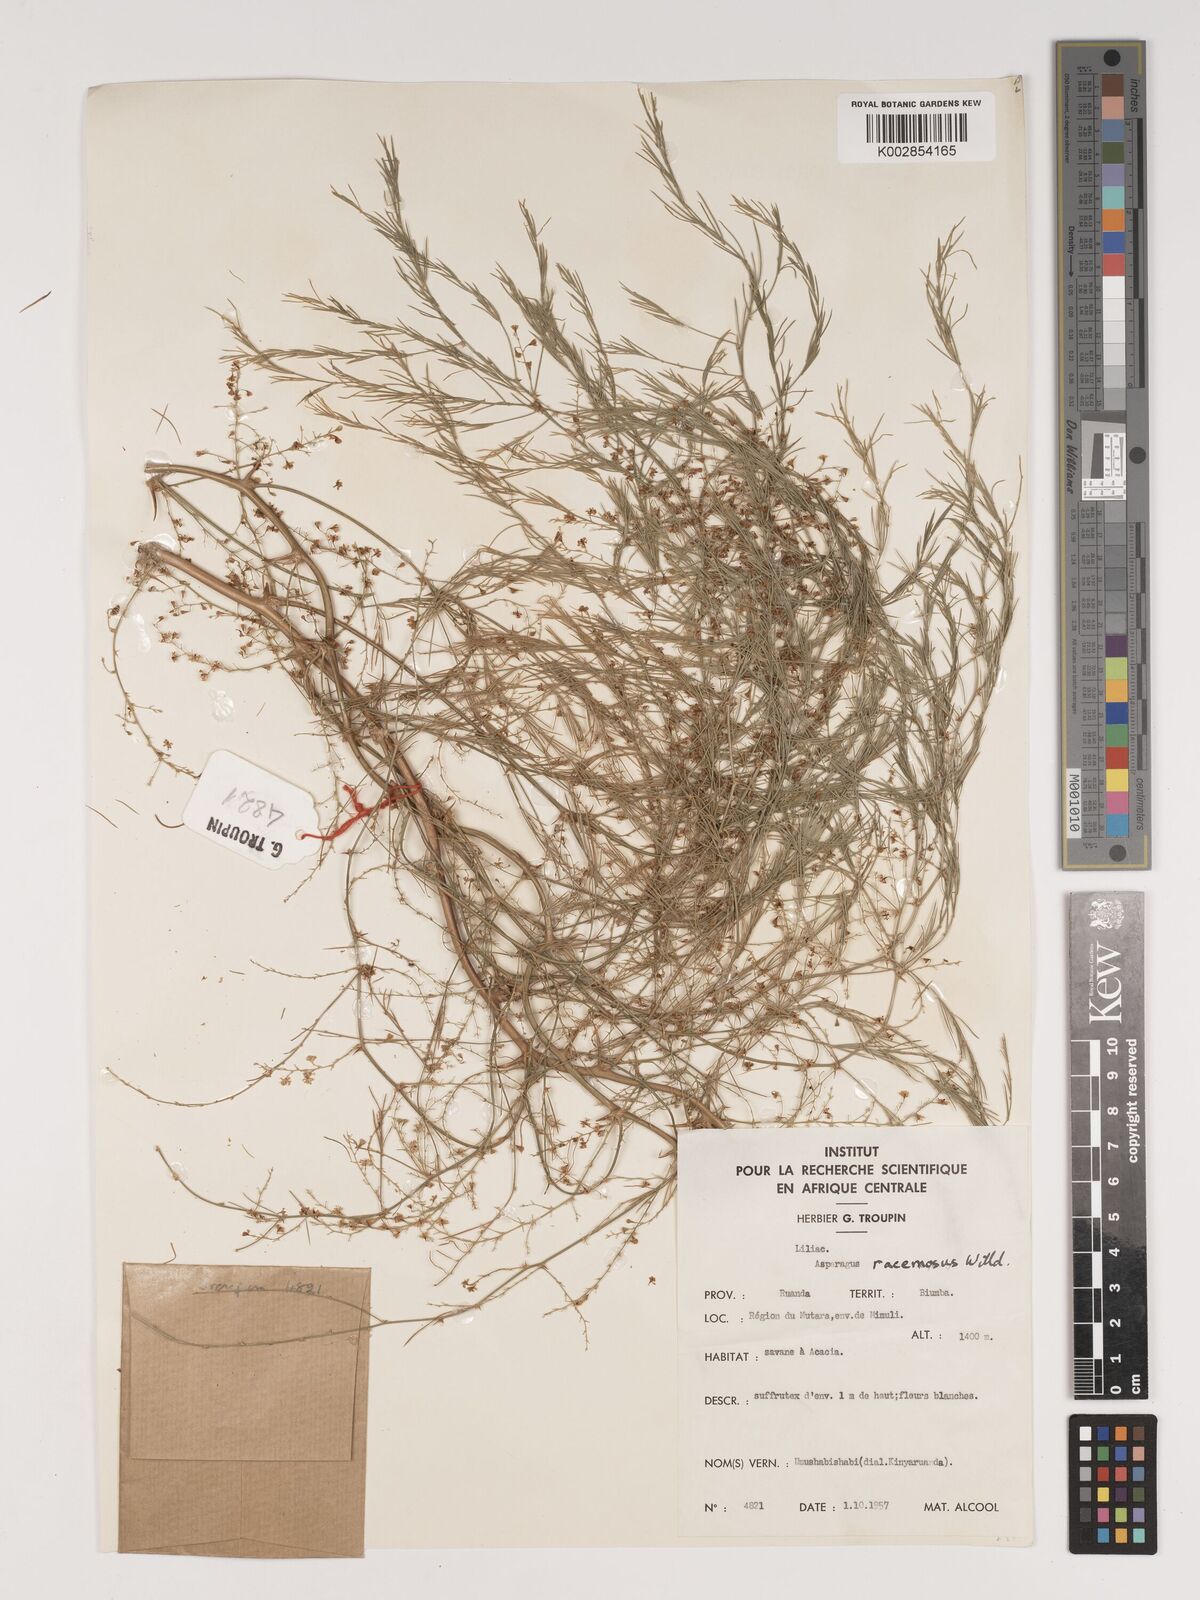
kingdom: Plantae
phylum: Tracheophyta
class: Liliopsida
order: Asparagales
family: Asparagaceae
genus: Asparagus
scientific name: Asparagus buchananii
